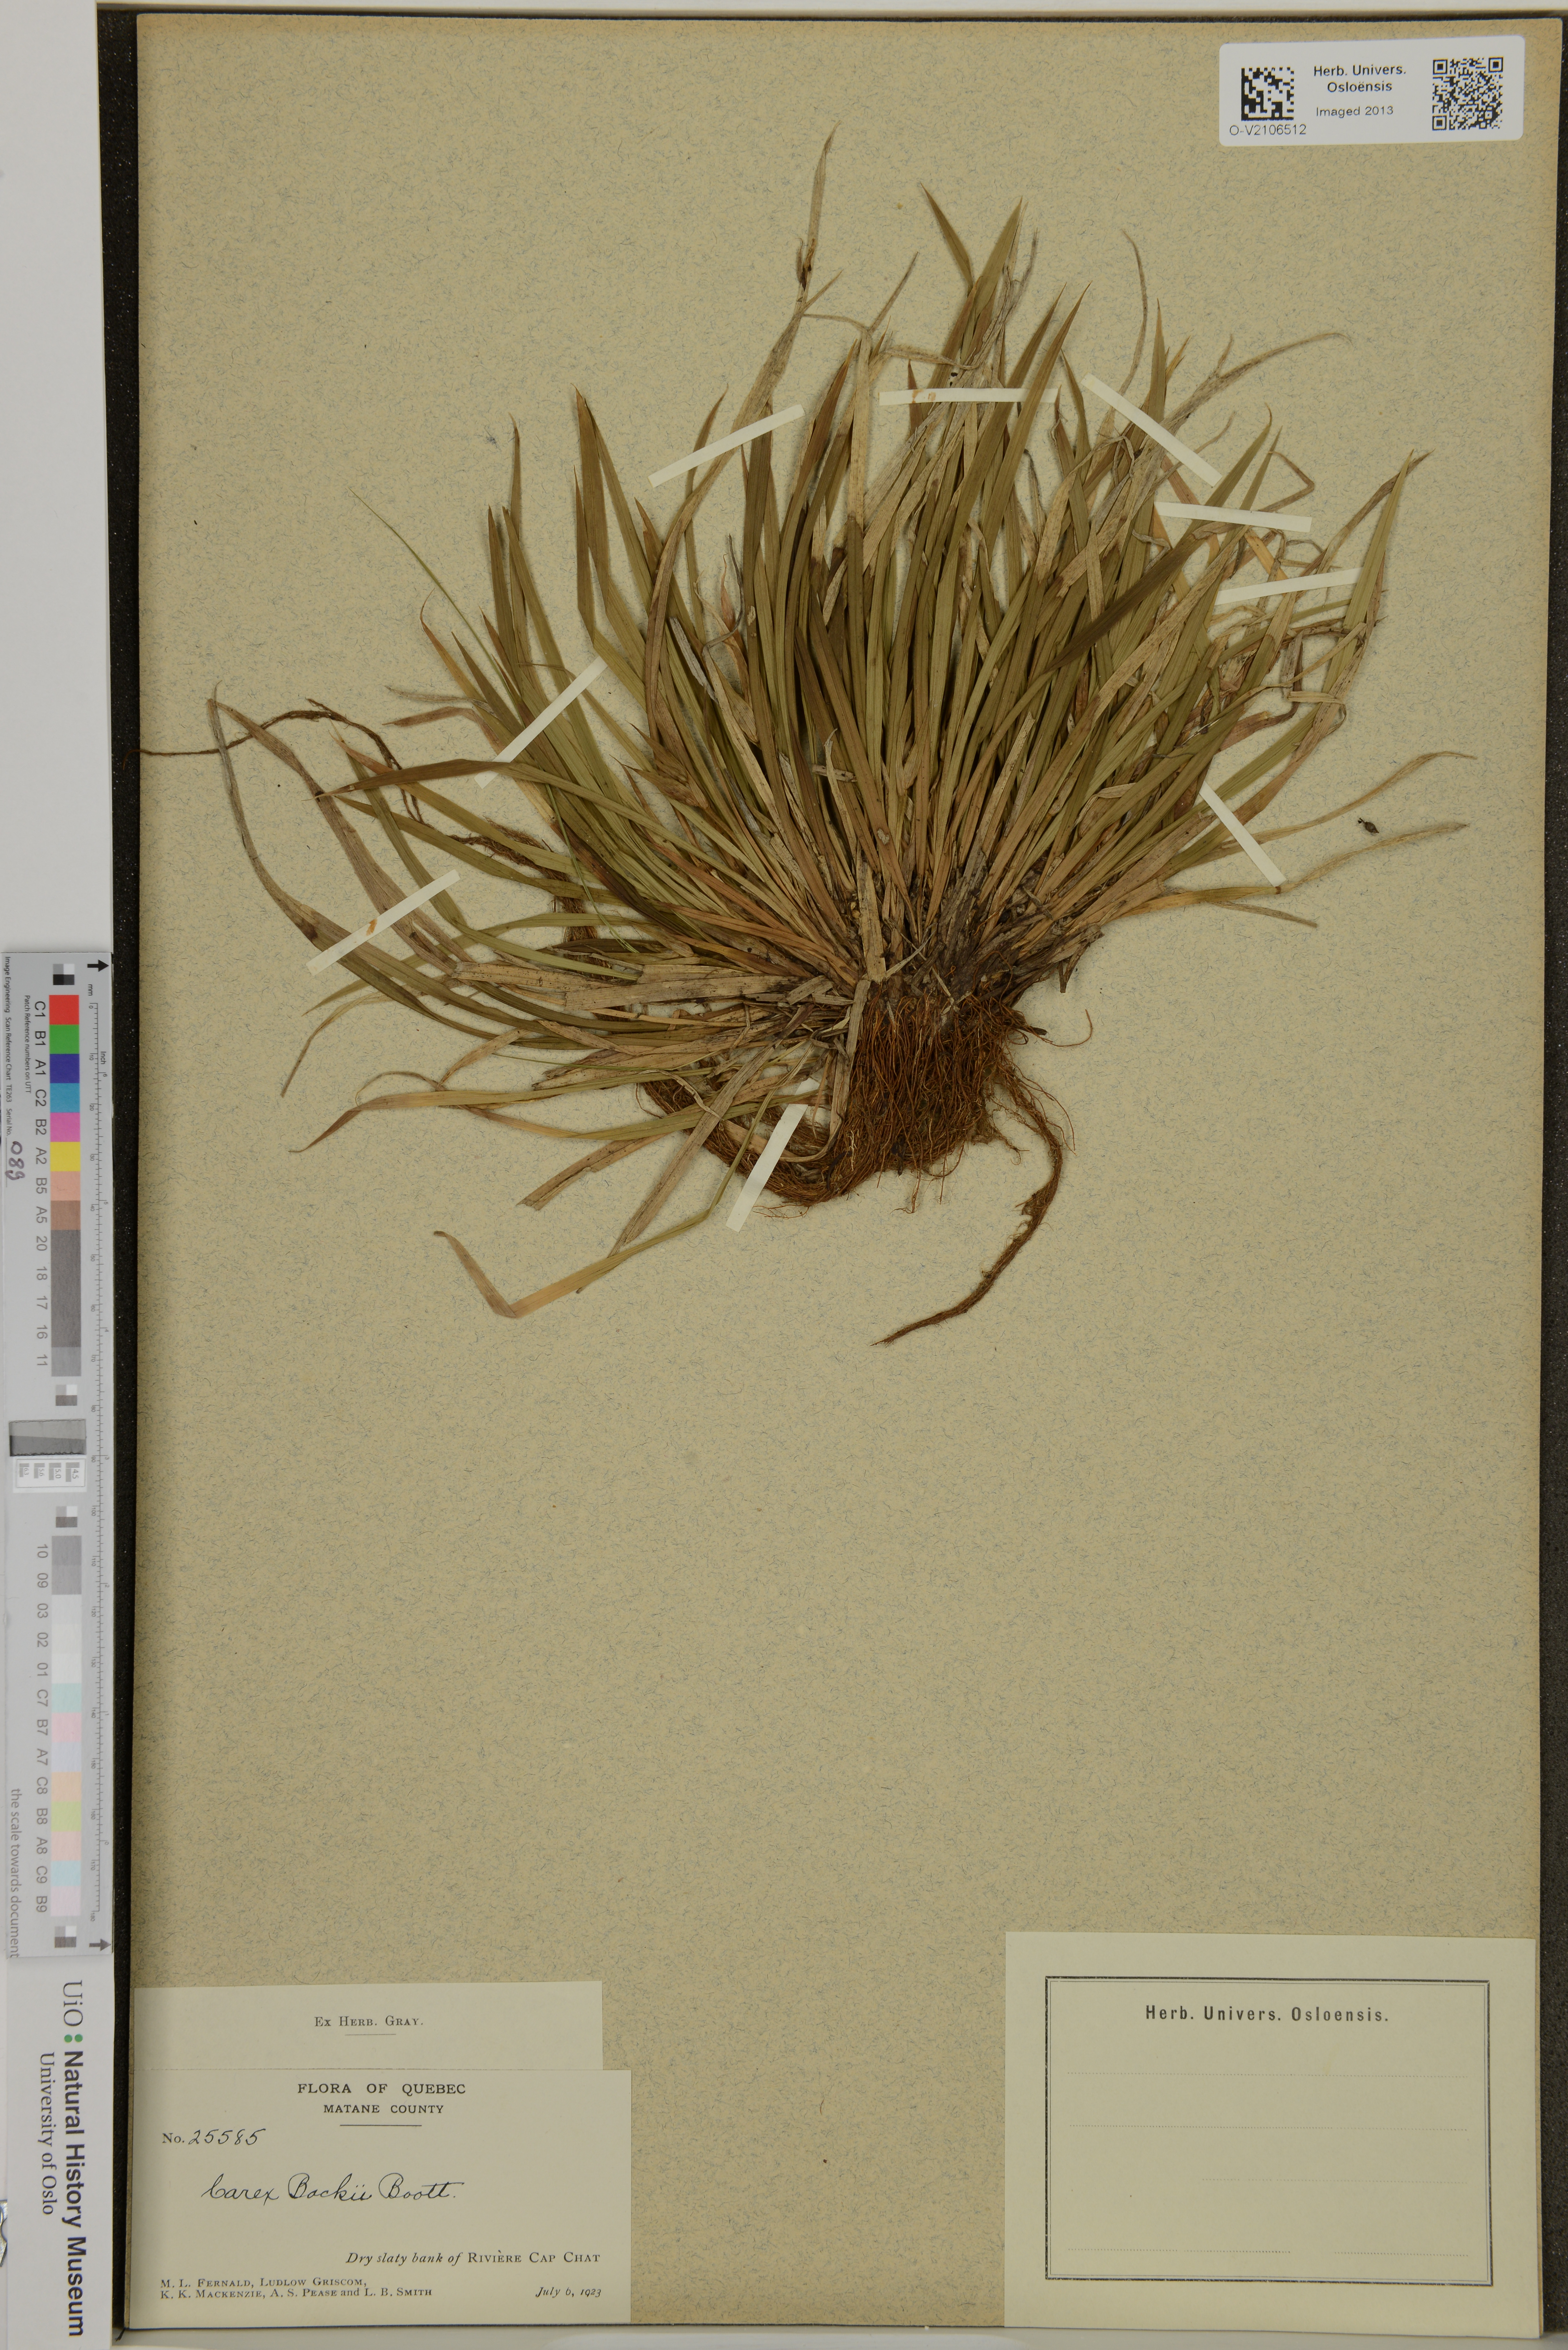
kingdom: Plantae
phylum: Tracheophyta
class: Liliopsida
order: Poales
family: Cyperaceae
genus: Carex
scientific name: Carex backii
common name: Back's sedge
